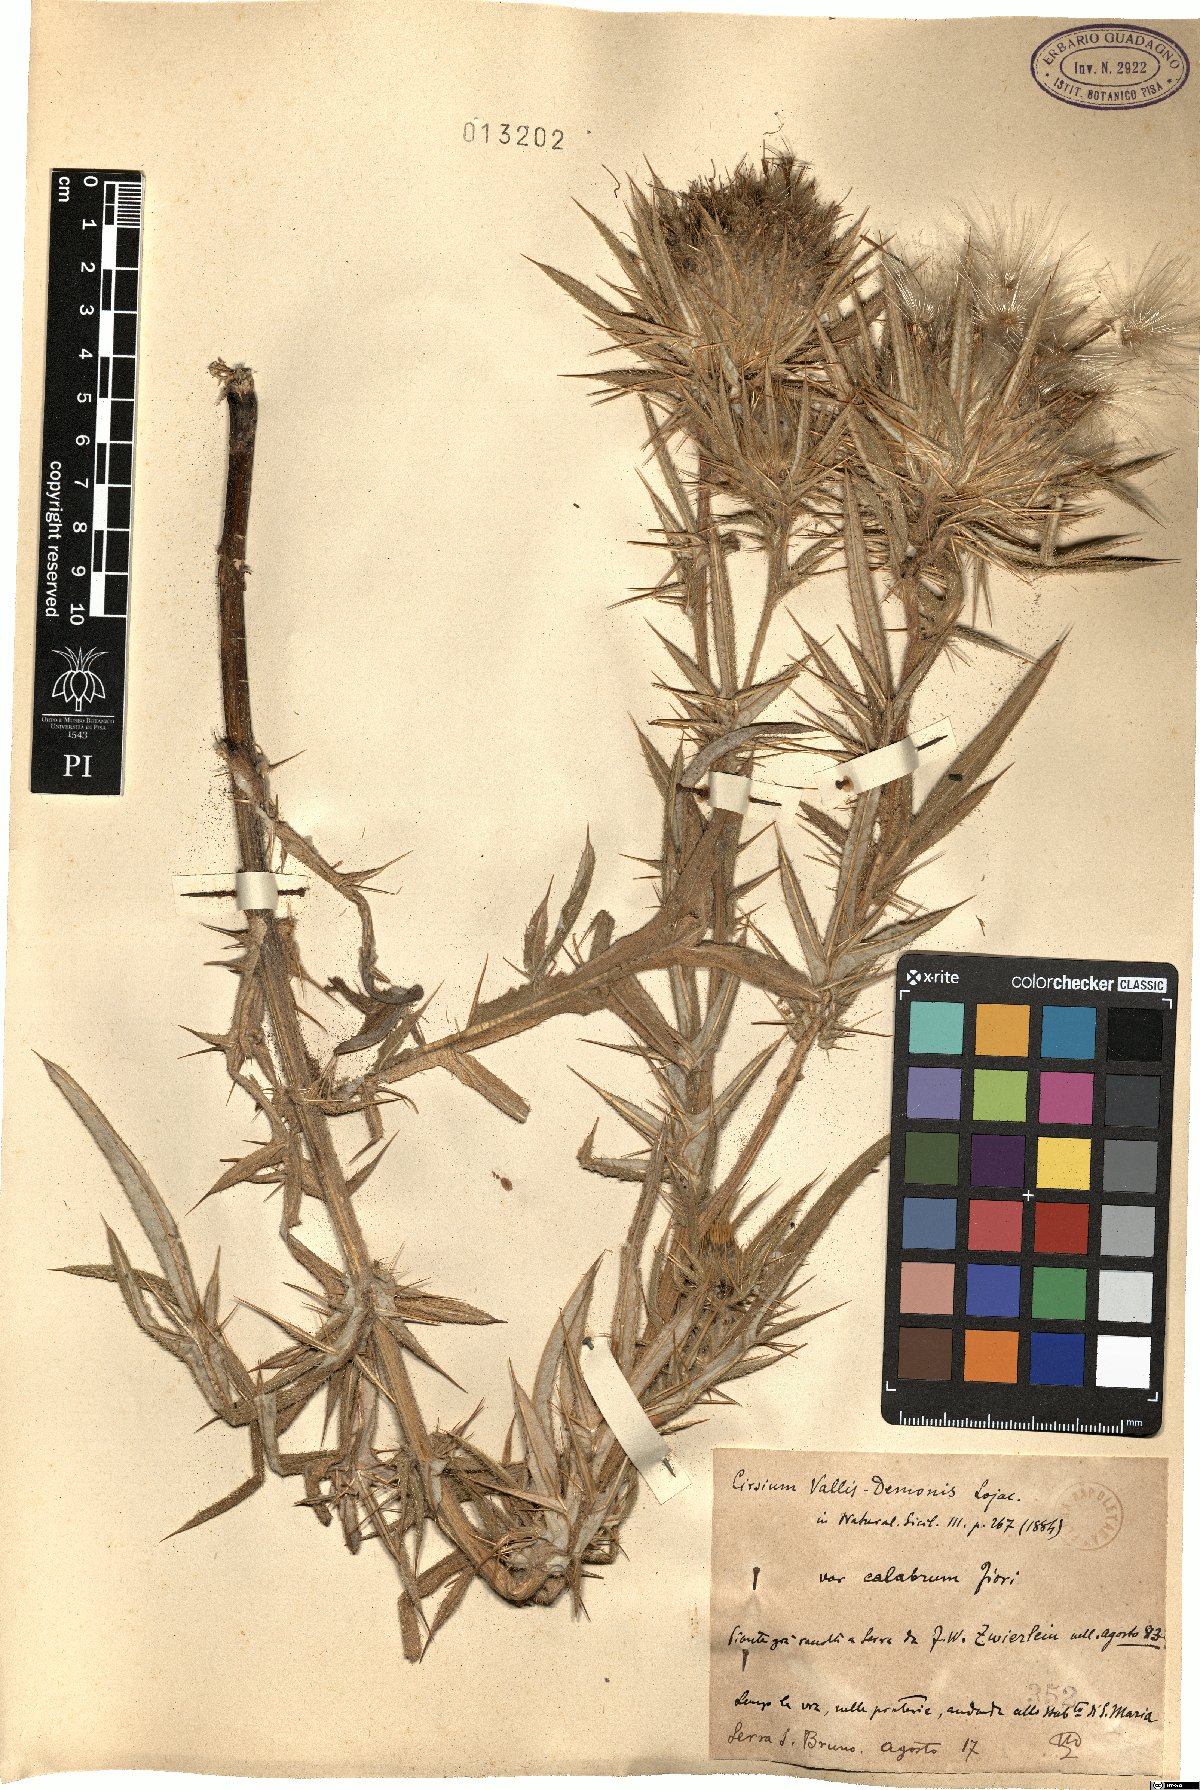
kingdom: Plantae
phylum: Tracheophyta
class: Magnoliopsida
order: Asterales
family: Asteraceae
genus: Lophiolepis
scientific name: Lophiolepis vallis-demonii
